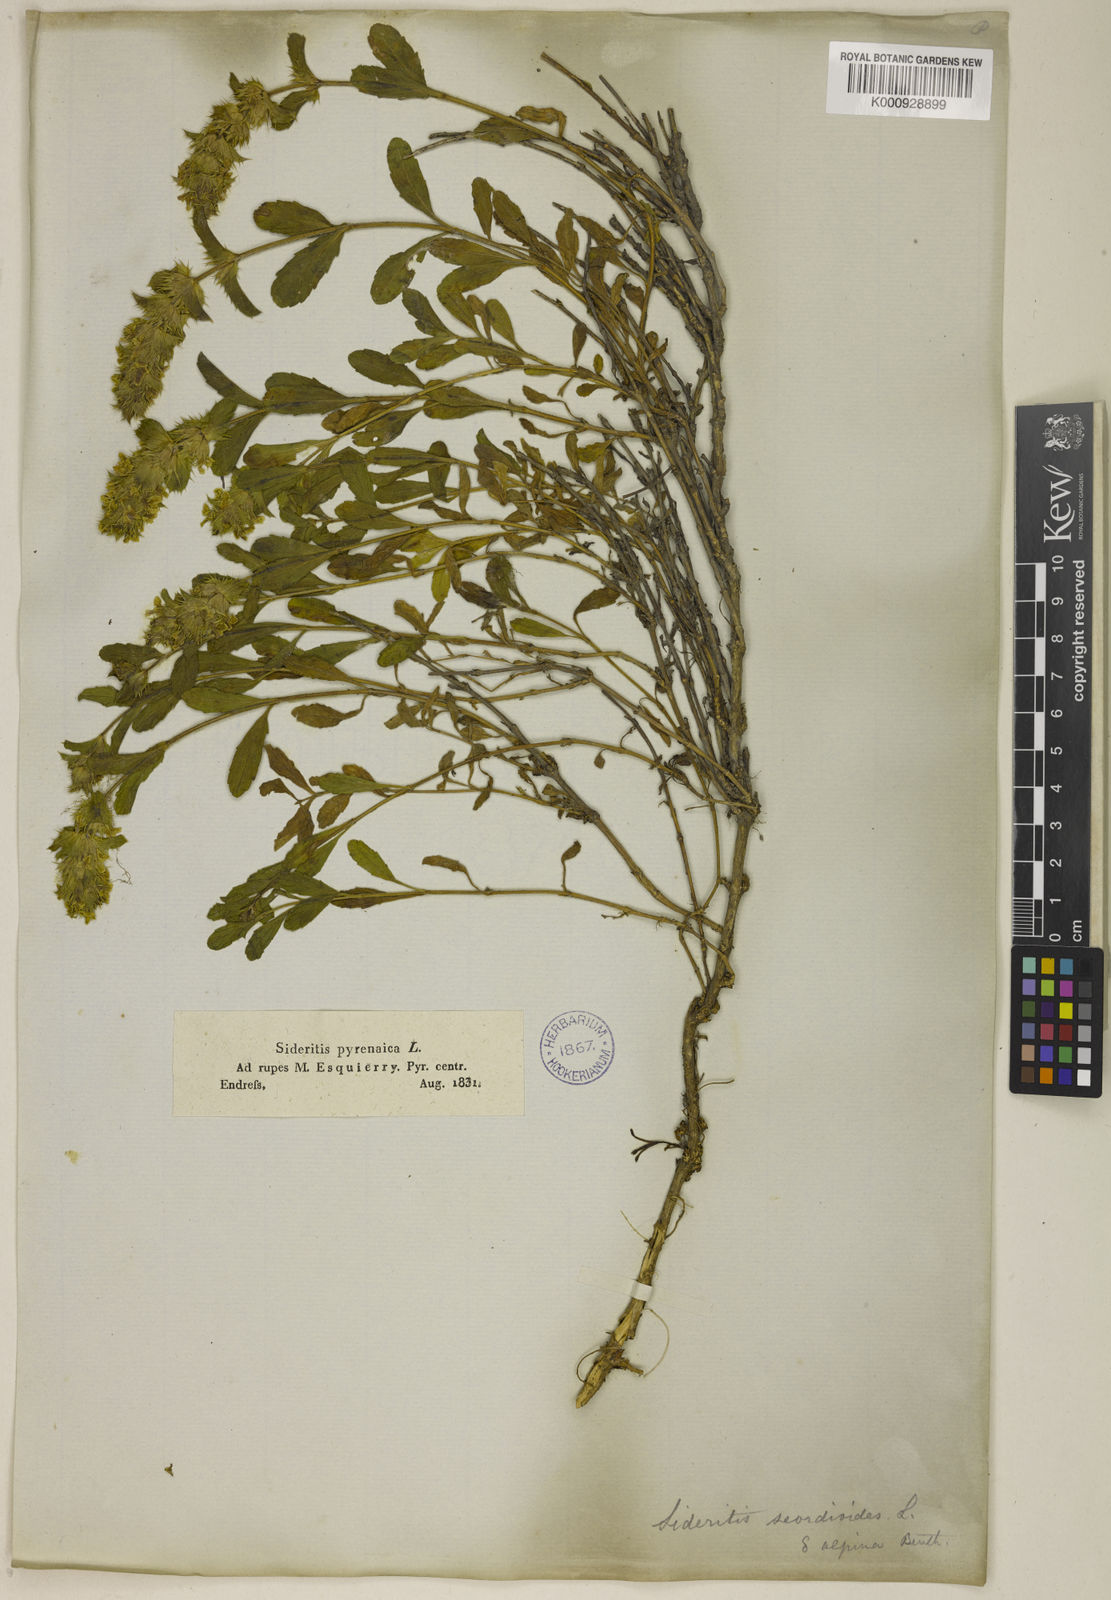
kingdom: Plantae
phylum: Tracheophyta
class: Magnoliopsida
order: Lamiales
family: Lamiaceae
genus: Sideritis
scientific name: Sideritis hyssopifolia
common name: Mountain tea
